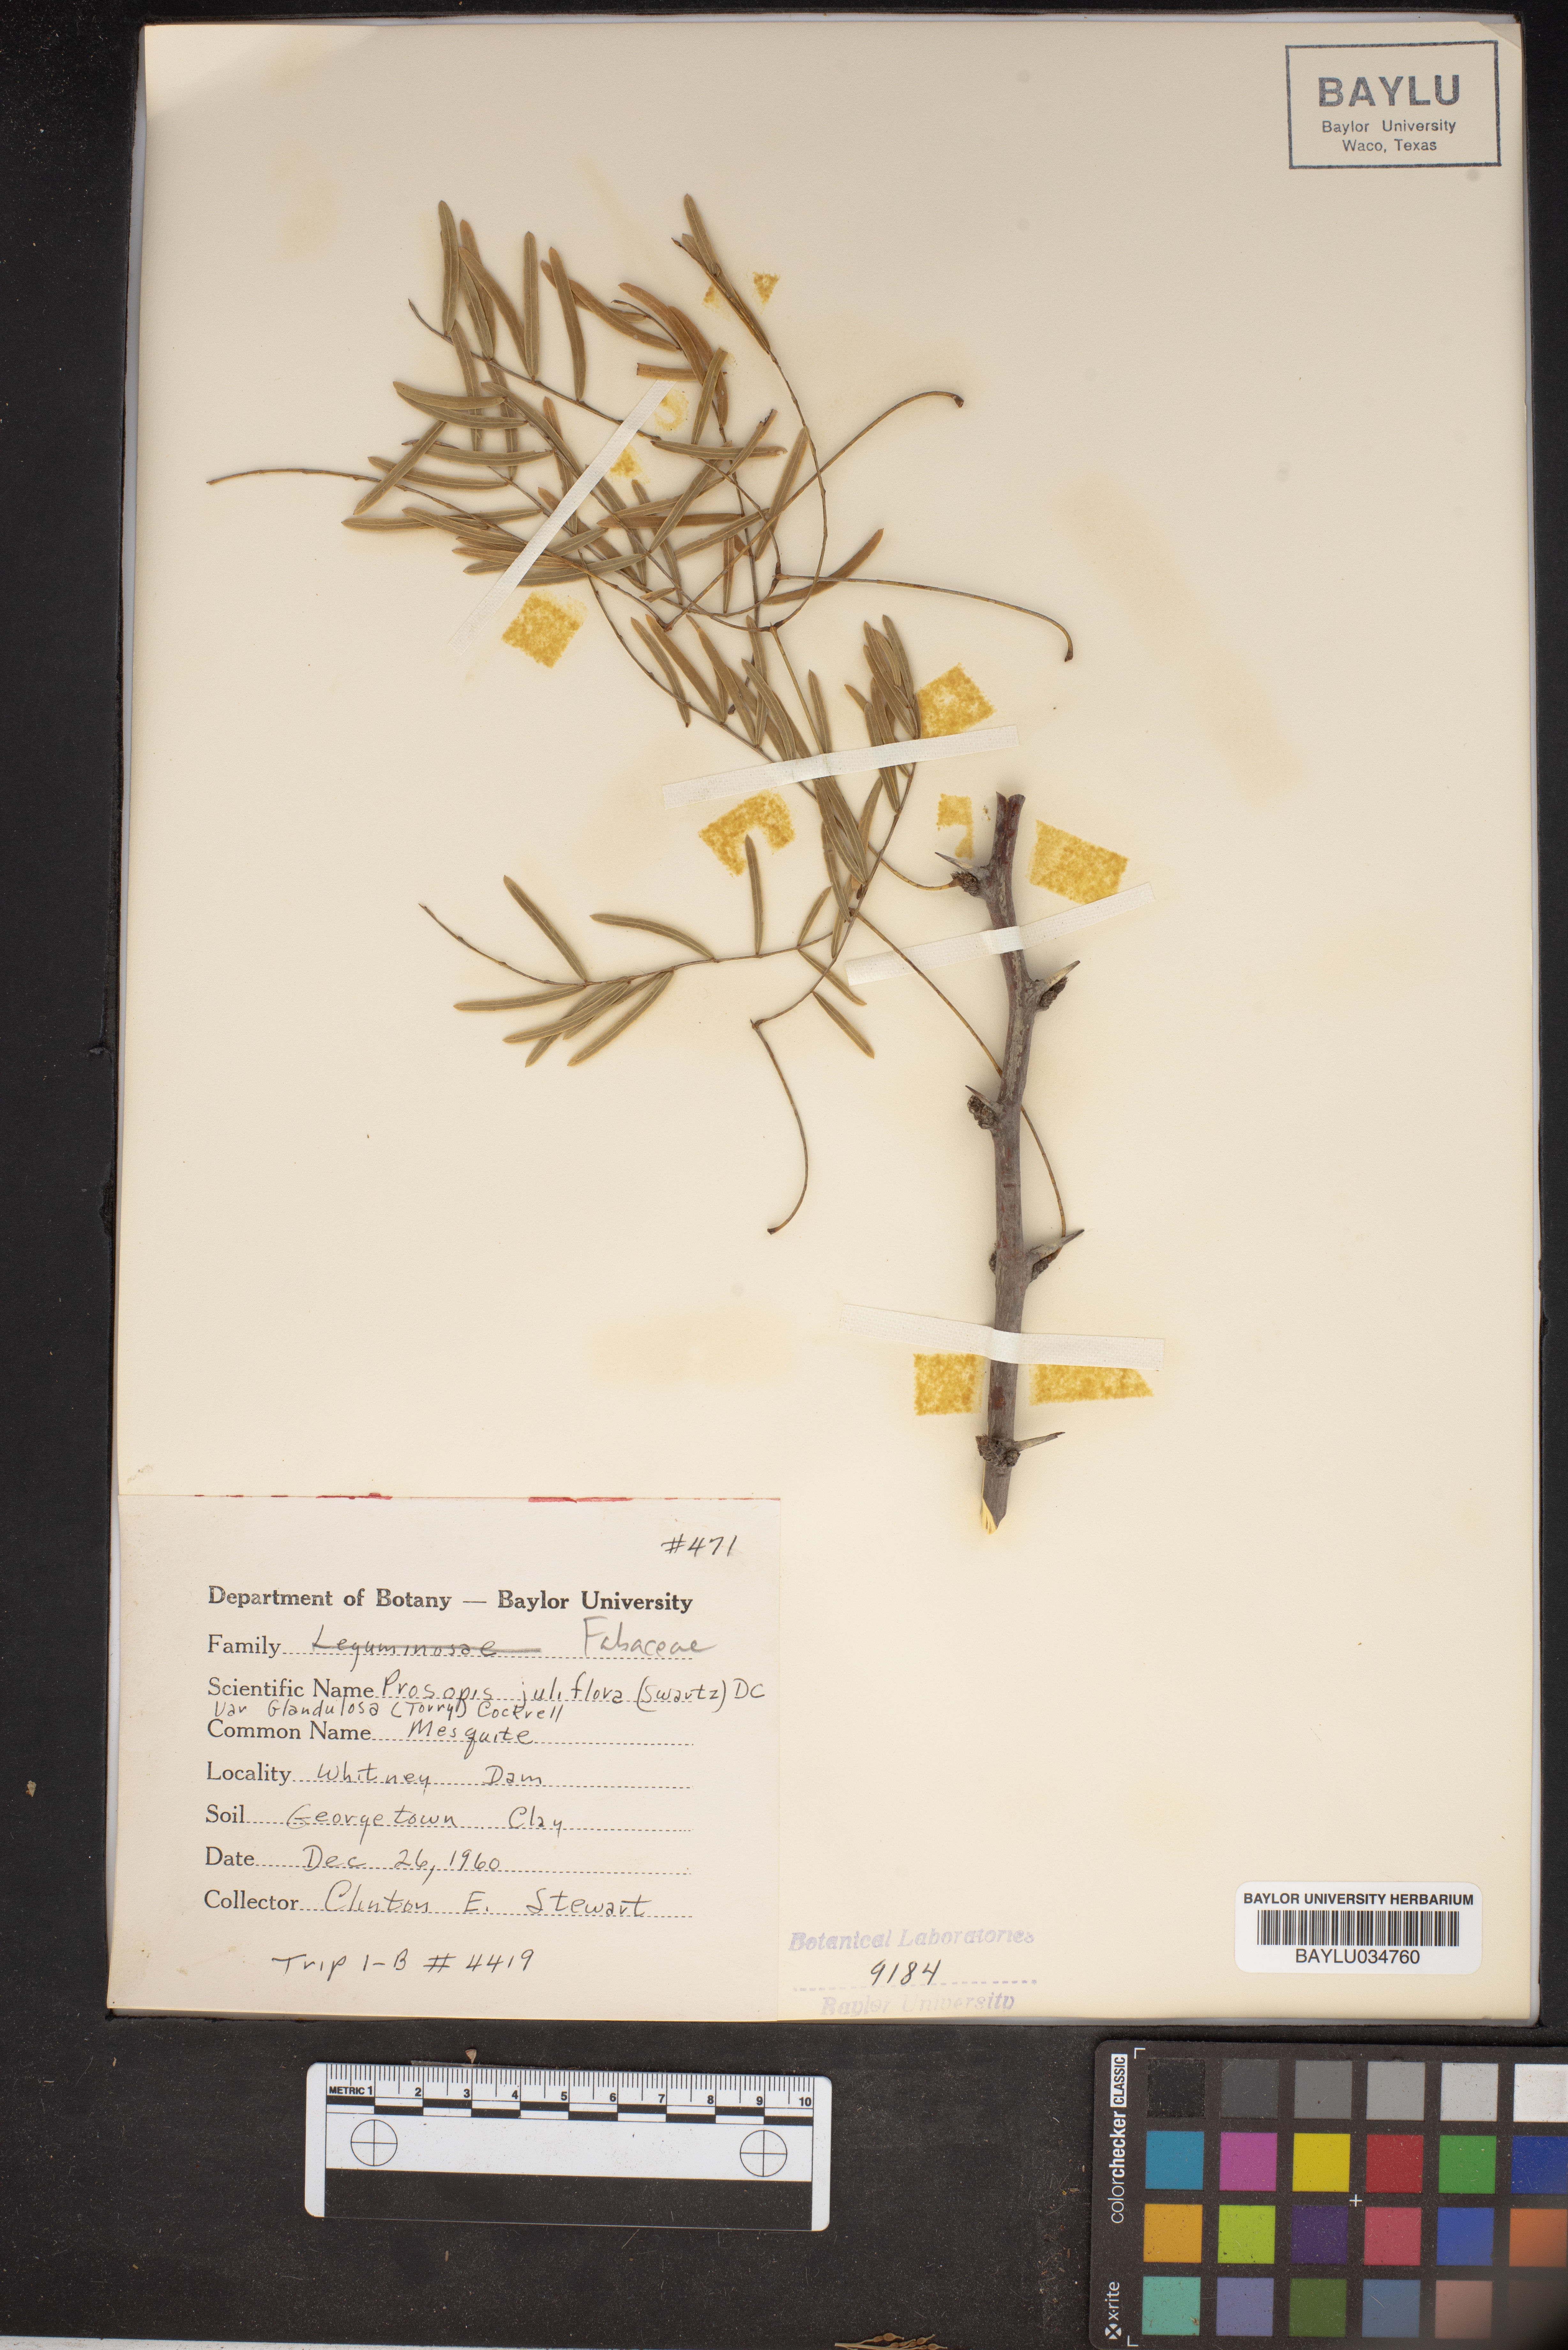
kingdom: Plantae
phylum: Tracheophyta
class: Magnoliopsida
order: Fabales
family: Fabaceae
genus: Prosopis
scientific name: Prosopis glandulosa
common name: Honey mesquite
